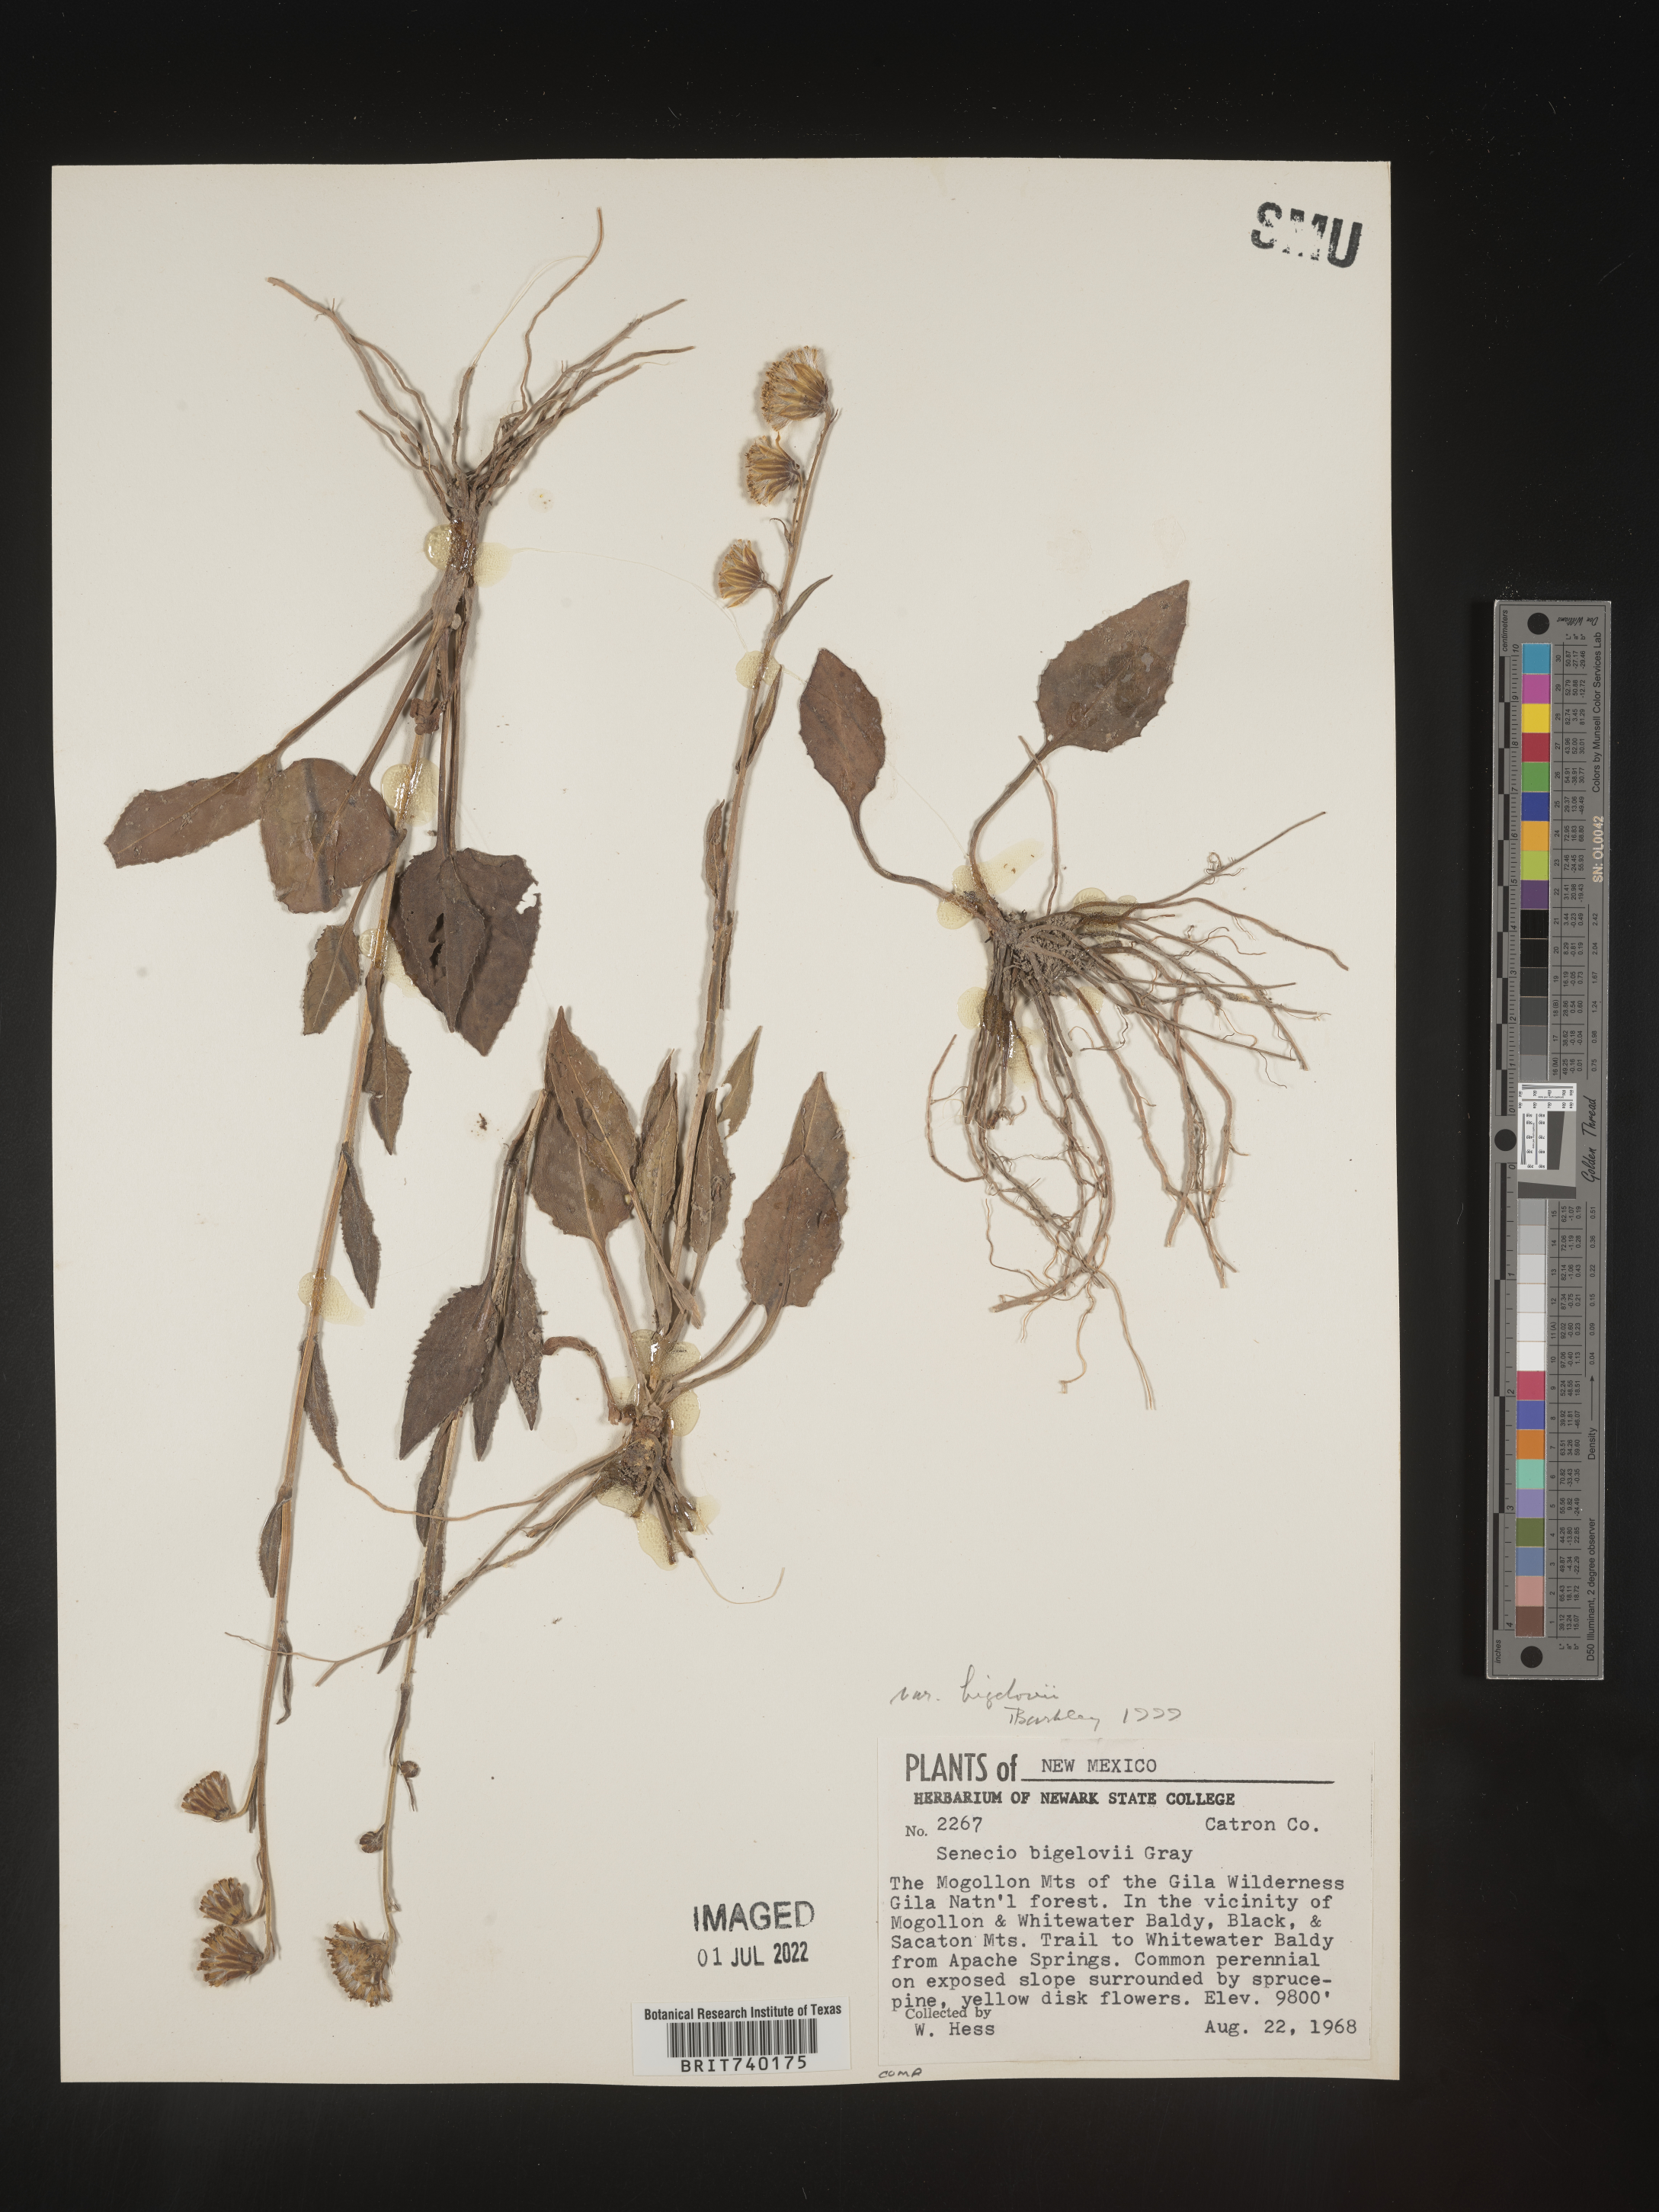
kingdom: Plantae
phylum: Tracheophyta
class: Magnoliopsida
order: Asterales
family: Asteraceae
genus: Senecio
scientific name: Senecio bigelovii
